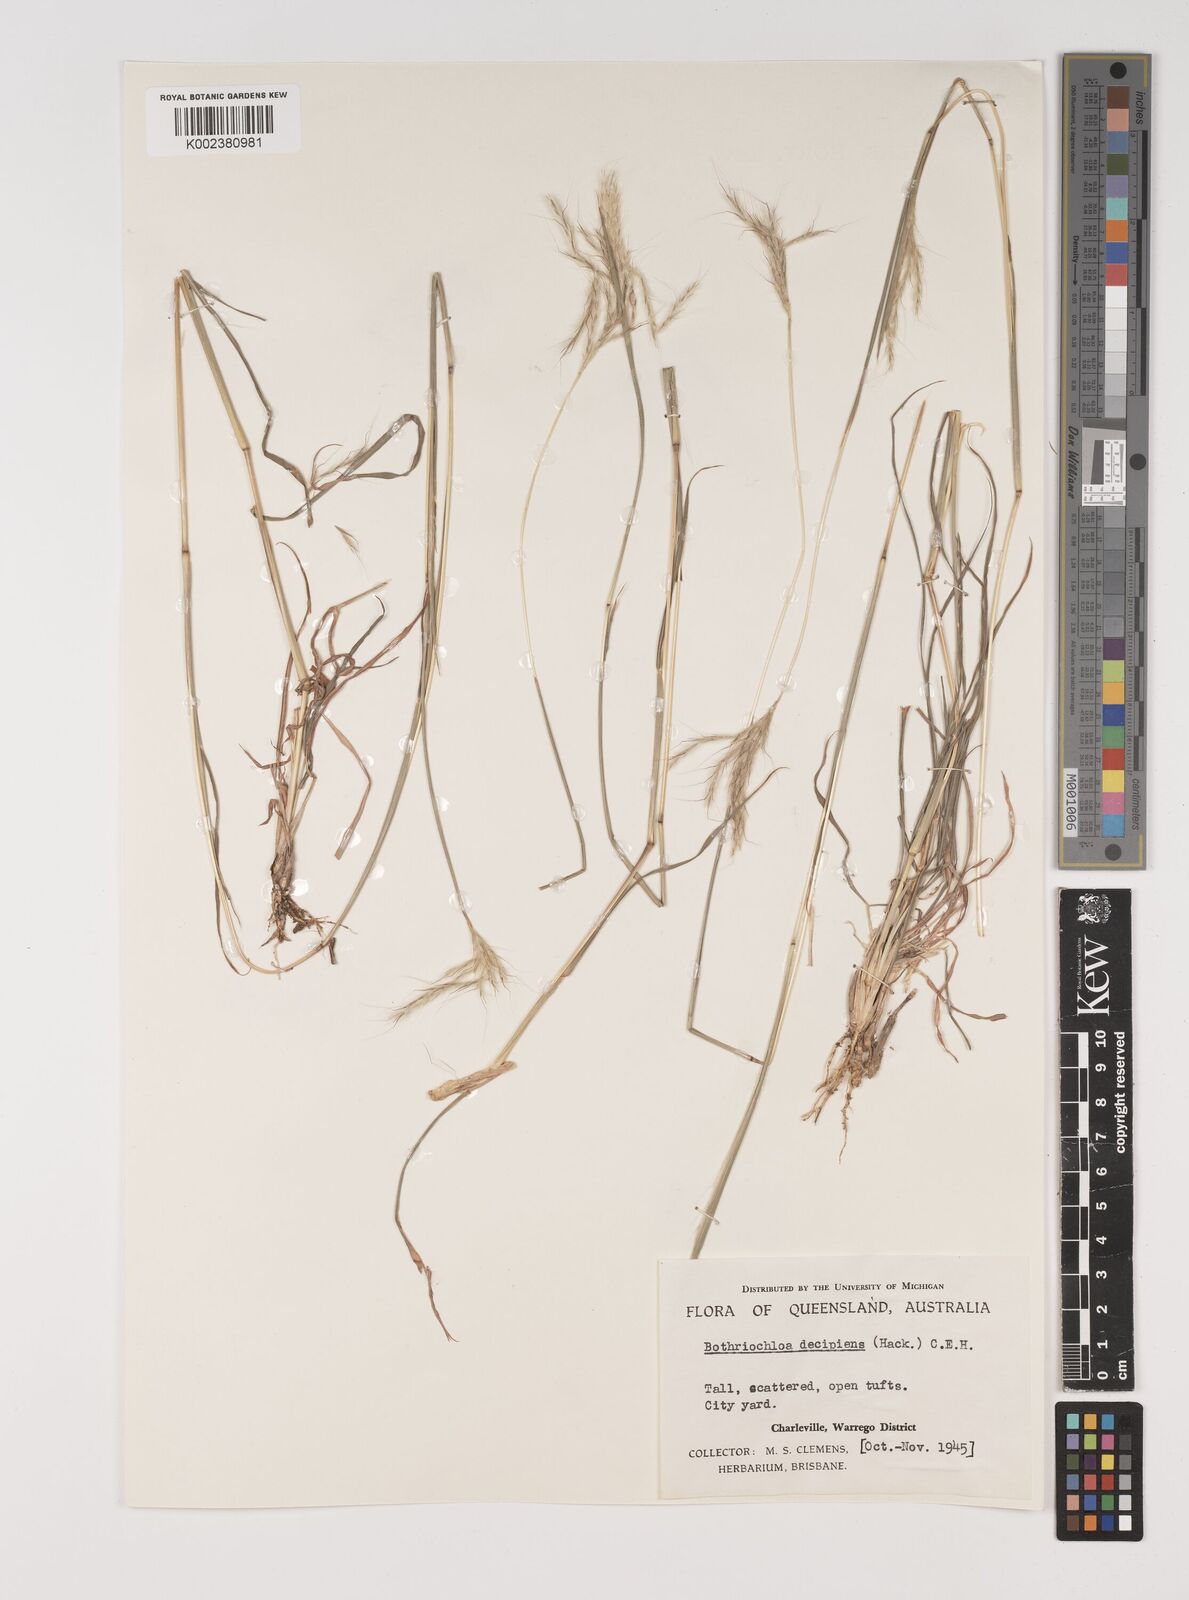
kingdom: Plantae
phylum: Tracheophyta
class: Liliopsida
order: Poales
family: Poaceae
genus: Bothriochloa
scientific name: Bothriochloa decipiens
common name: Pitted-bluegrass
